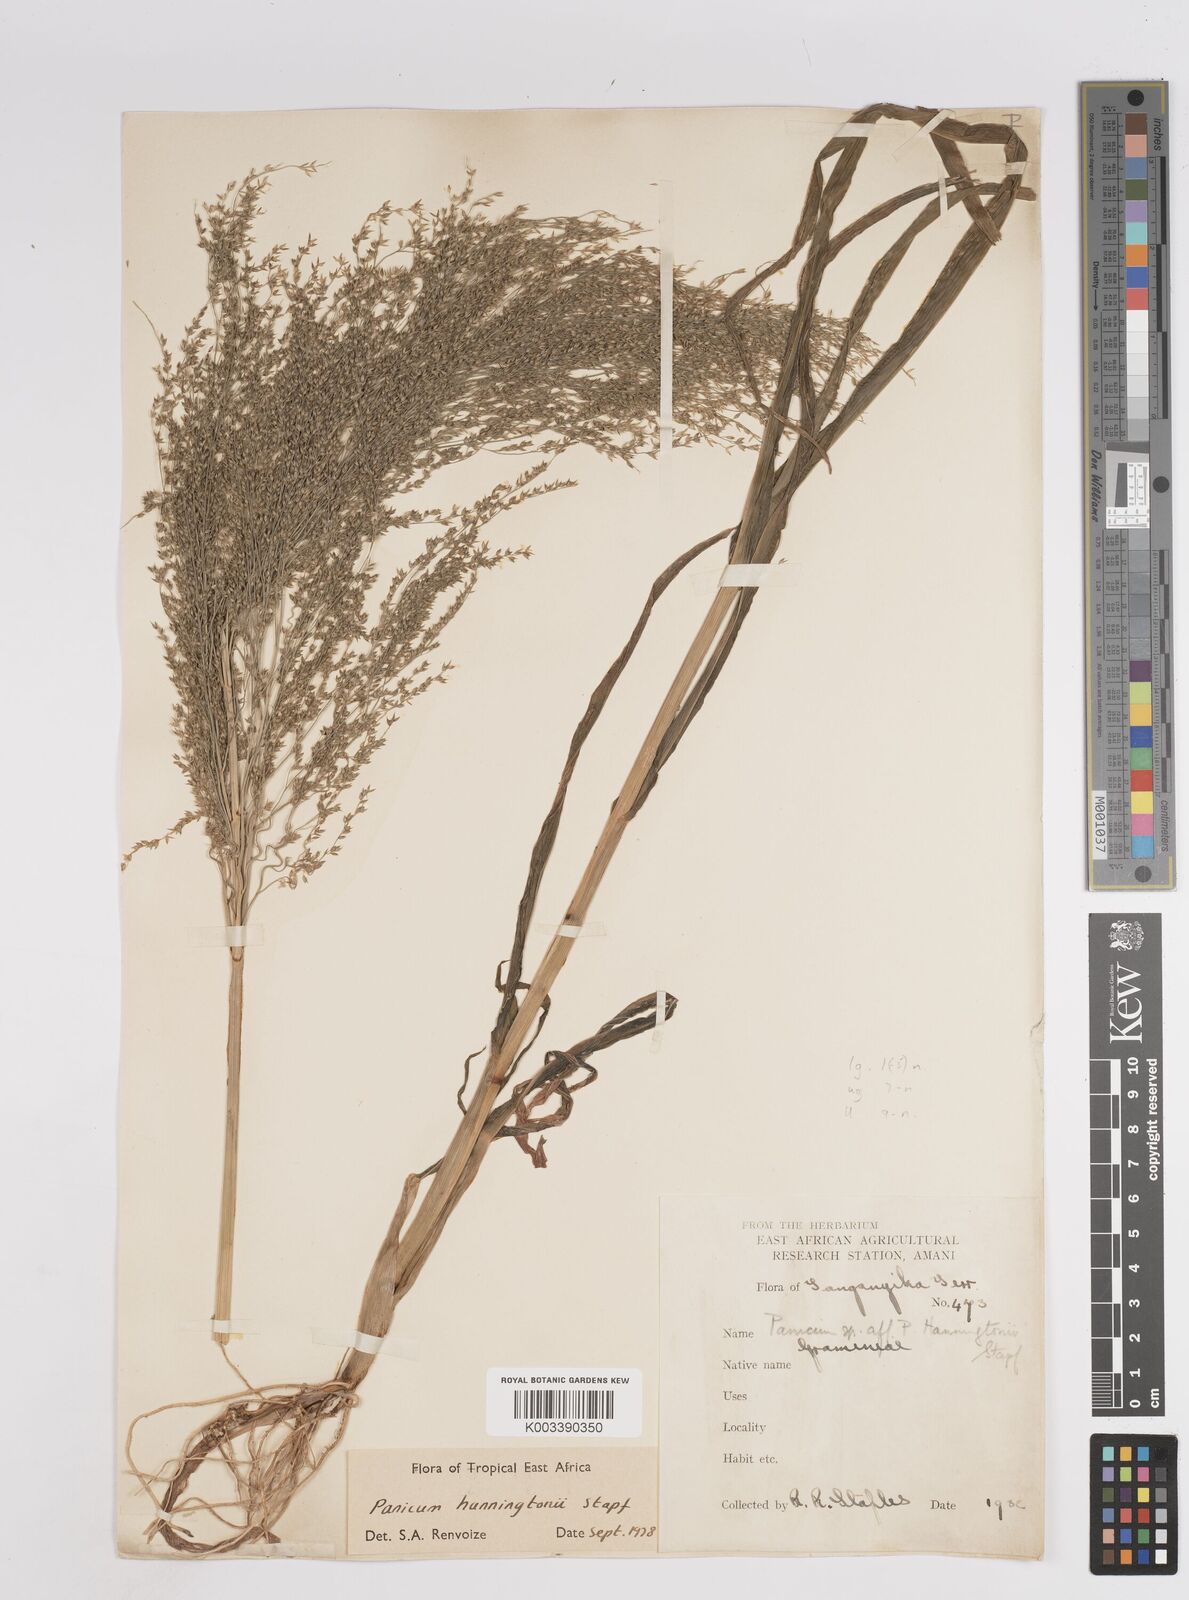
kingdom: Plantae
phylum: Tracheophyta
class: Liliopsida
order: Poales
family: Poaceae
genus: Panicum
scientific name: Panicum hanningtonii
